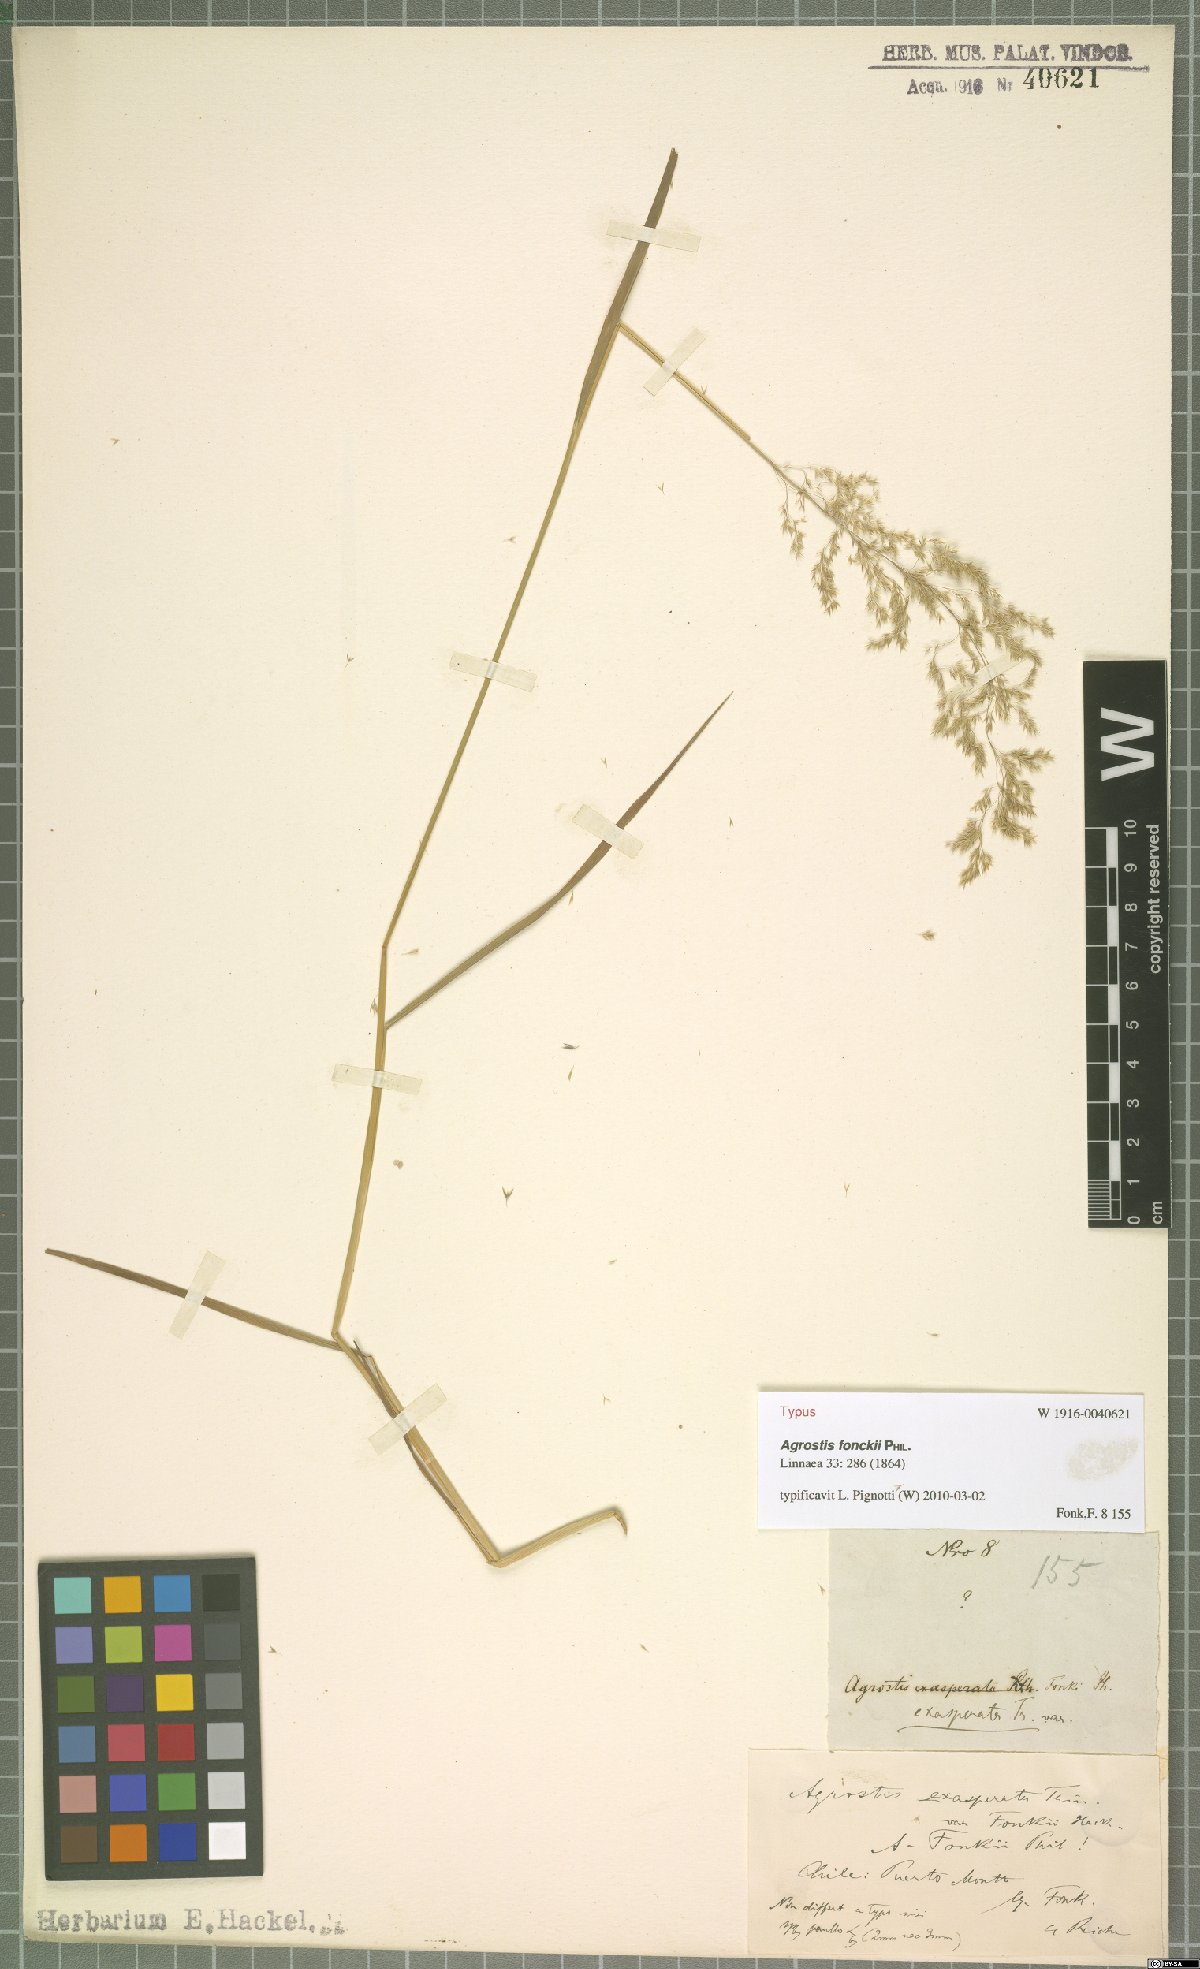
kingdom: Plantae
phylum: Tracheophyta
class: Liliopsida
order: Poales
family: Poaceae
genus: Agrostis
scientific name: Agrostis fonckii
